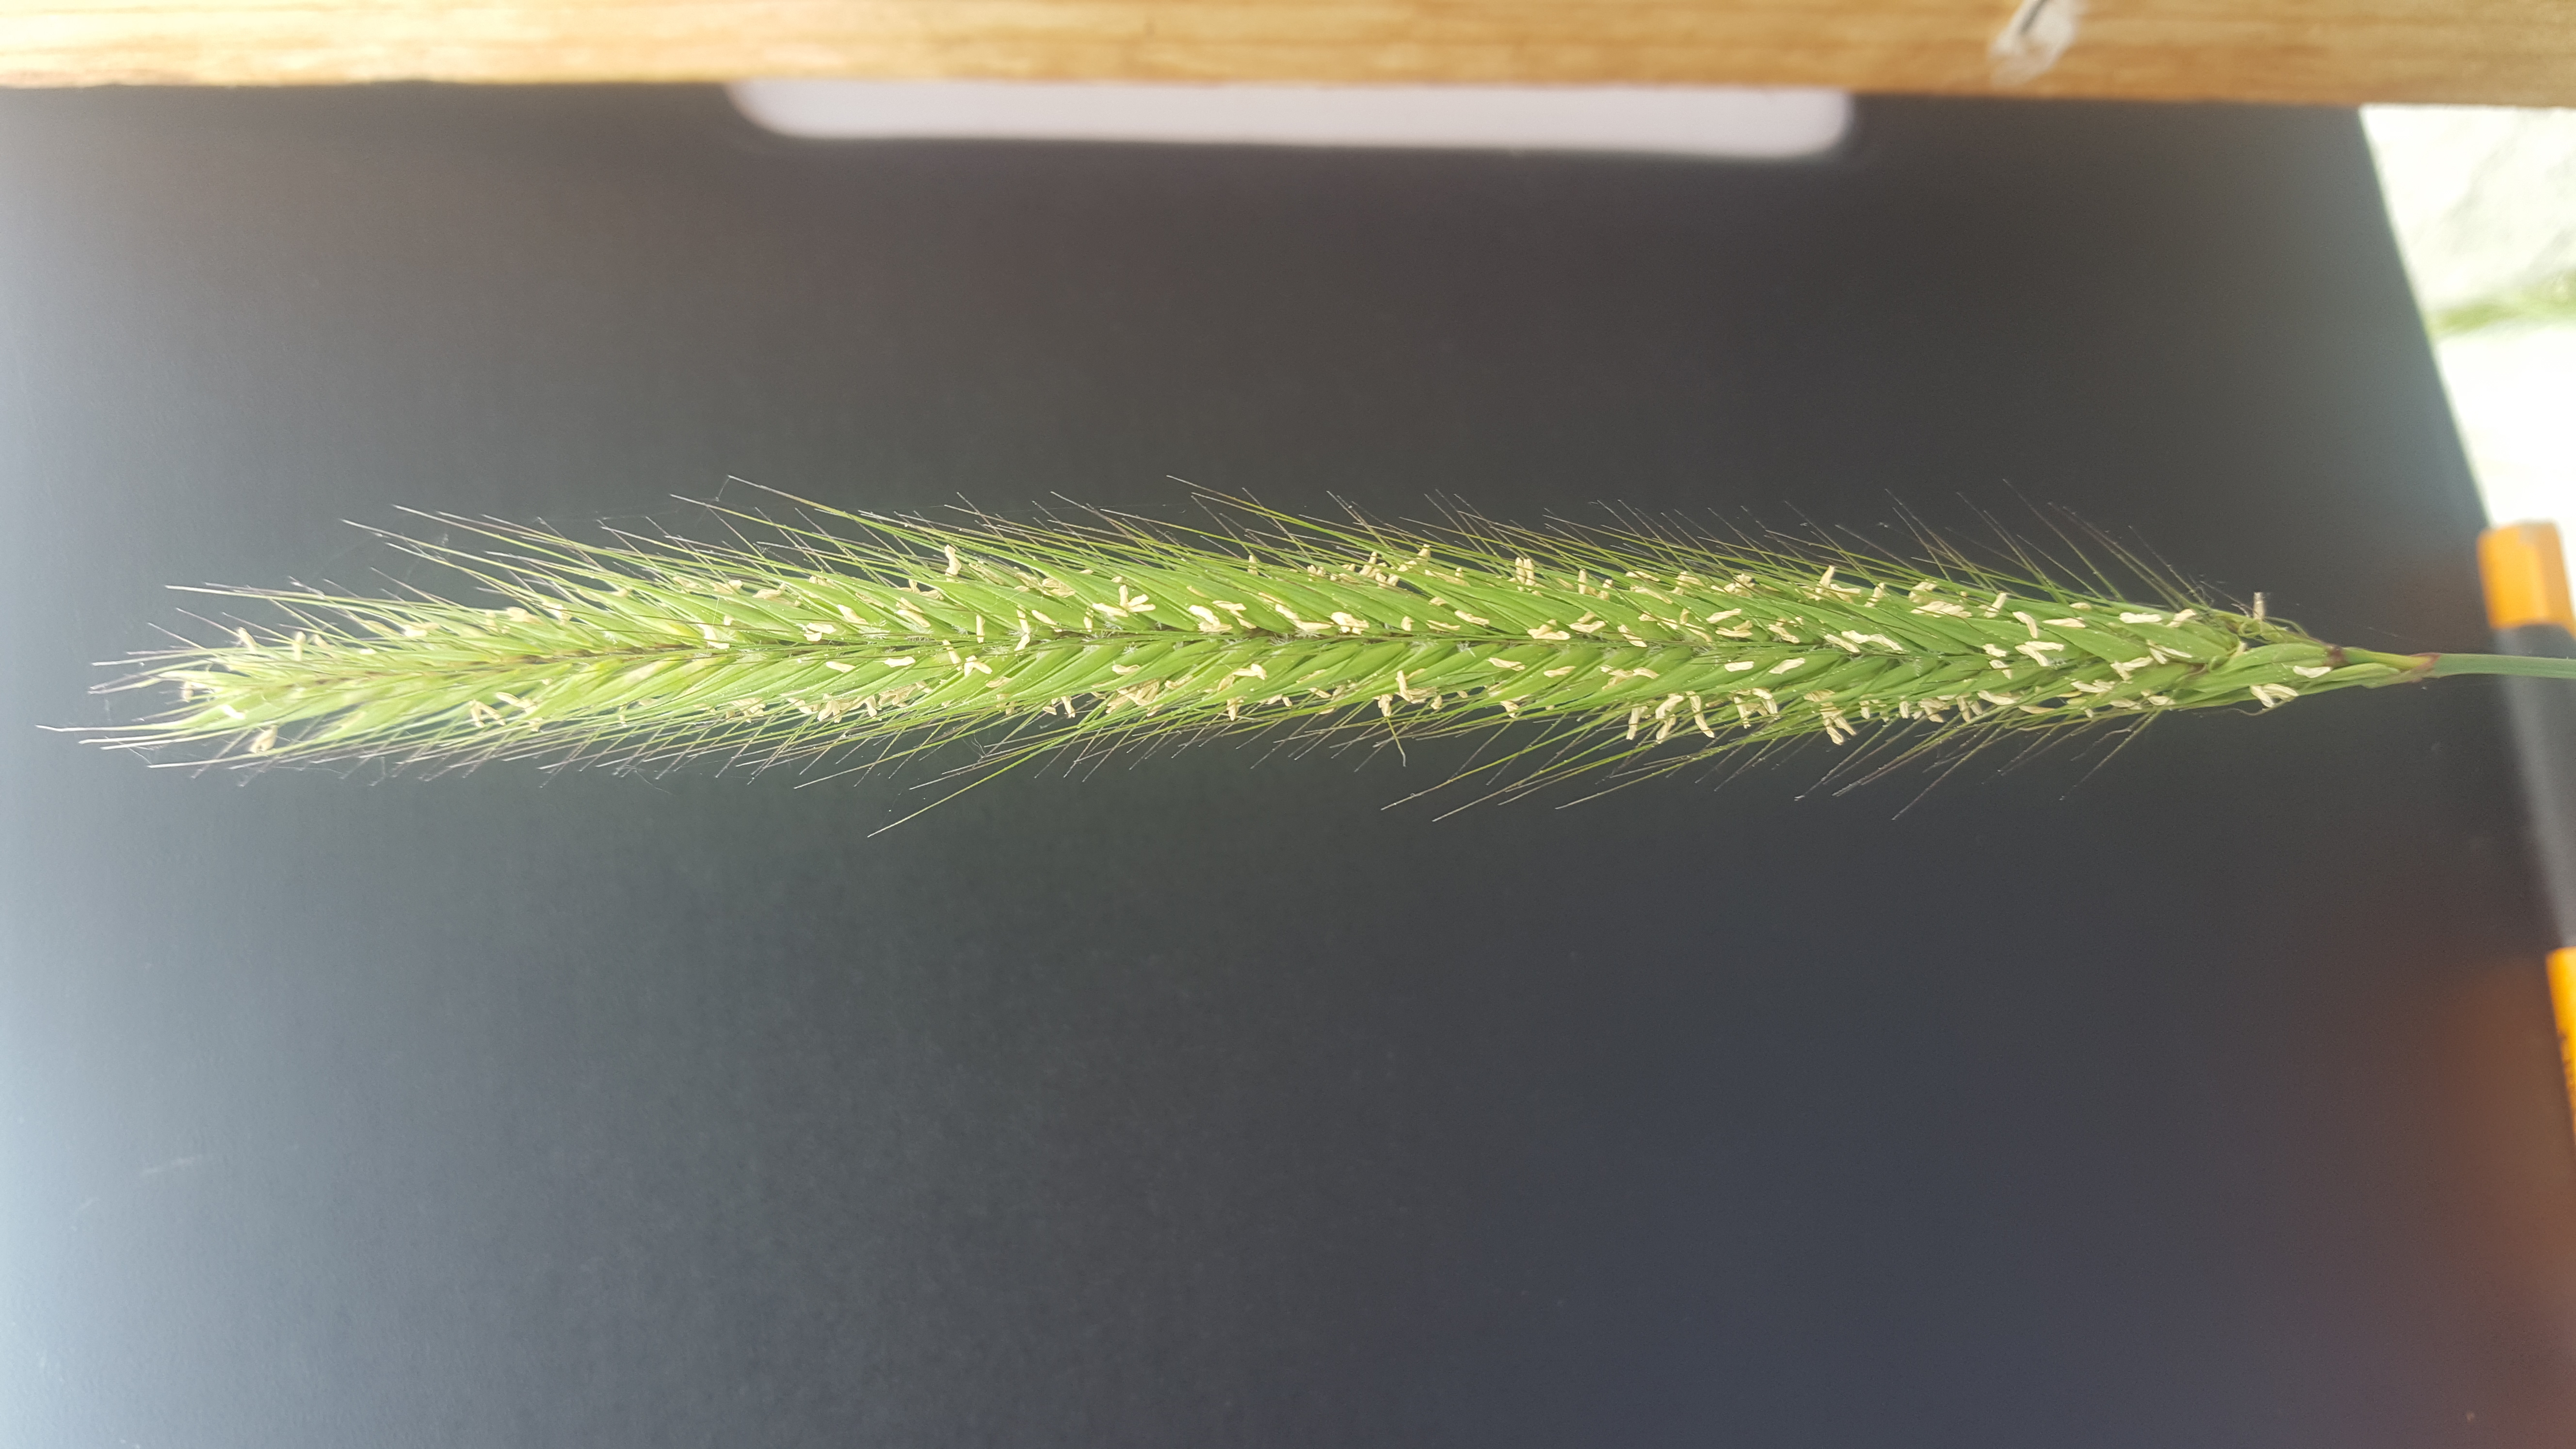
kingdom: Plantae
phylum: Tracheophyta
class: Liliopsida
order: Poales
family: Poaceae
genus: Hordeum
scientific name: Hordeum bogdanii
